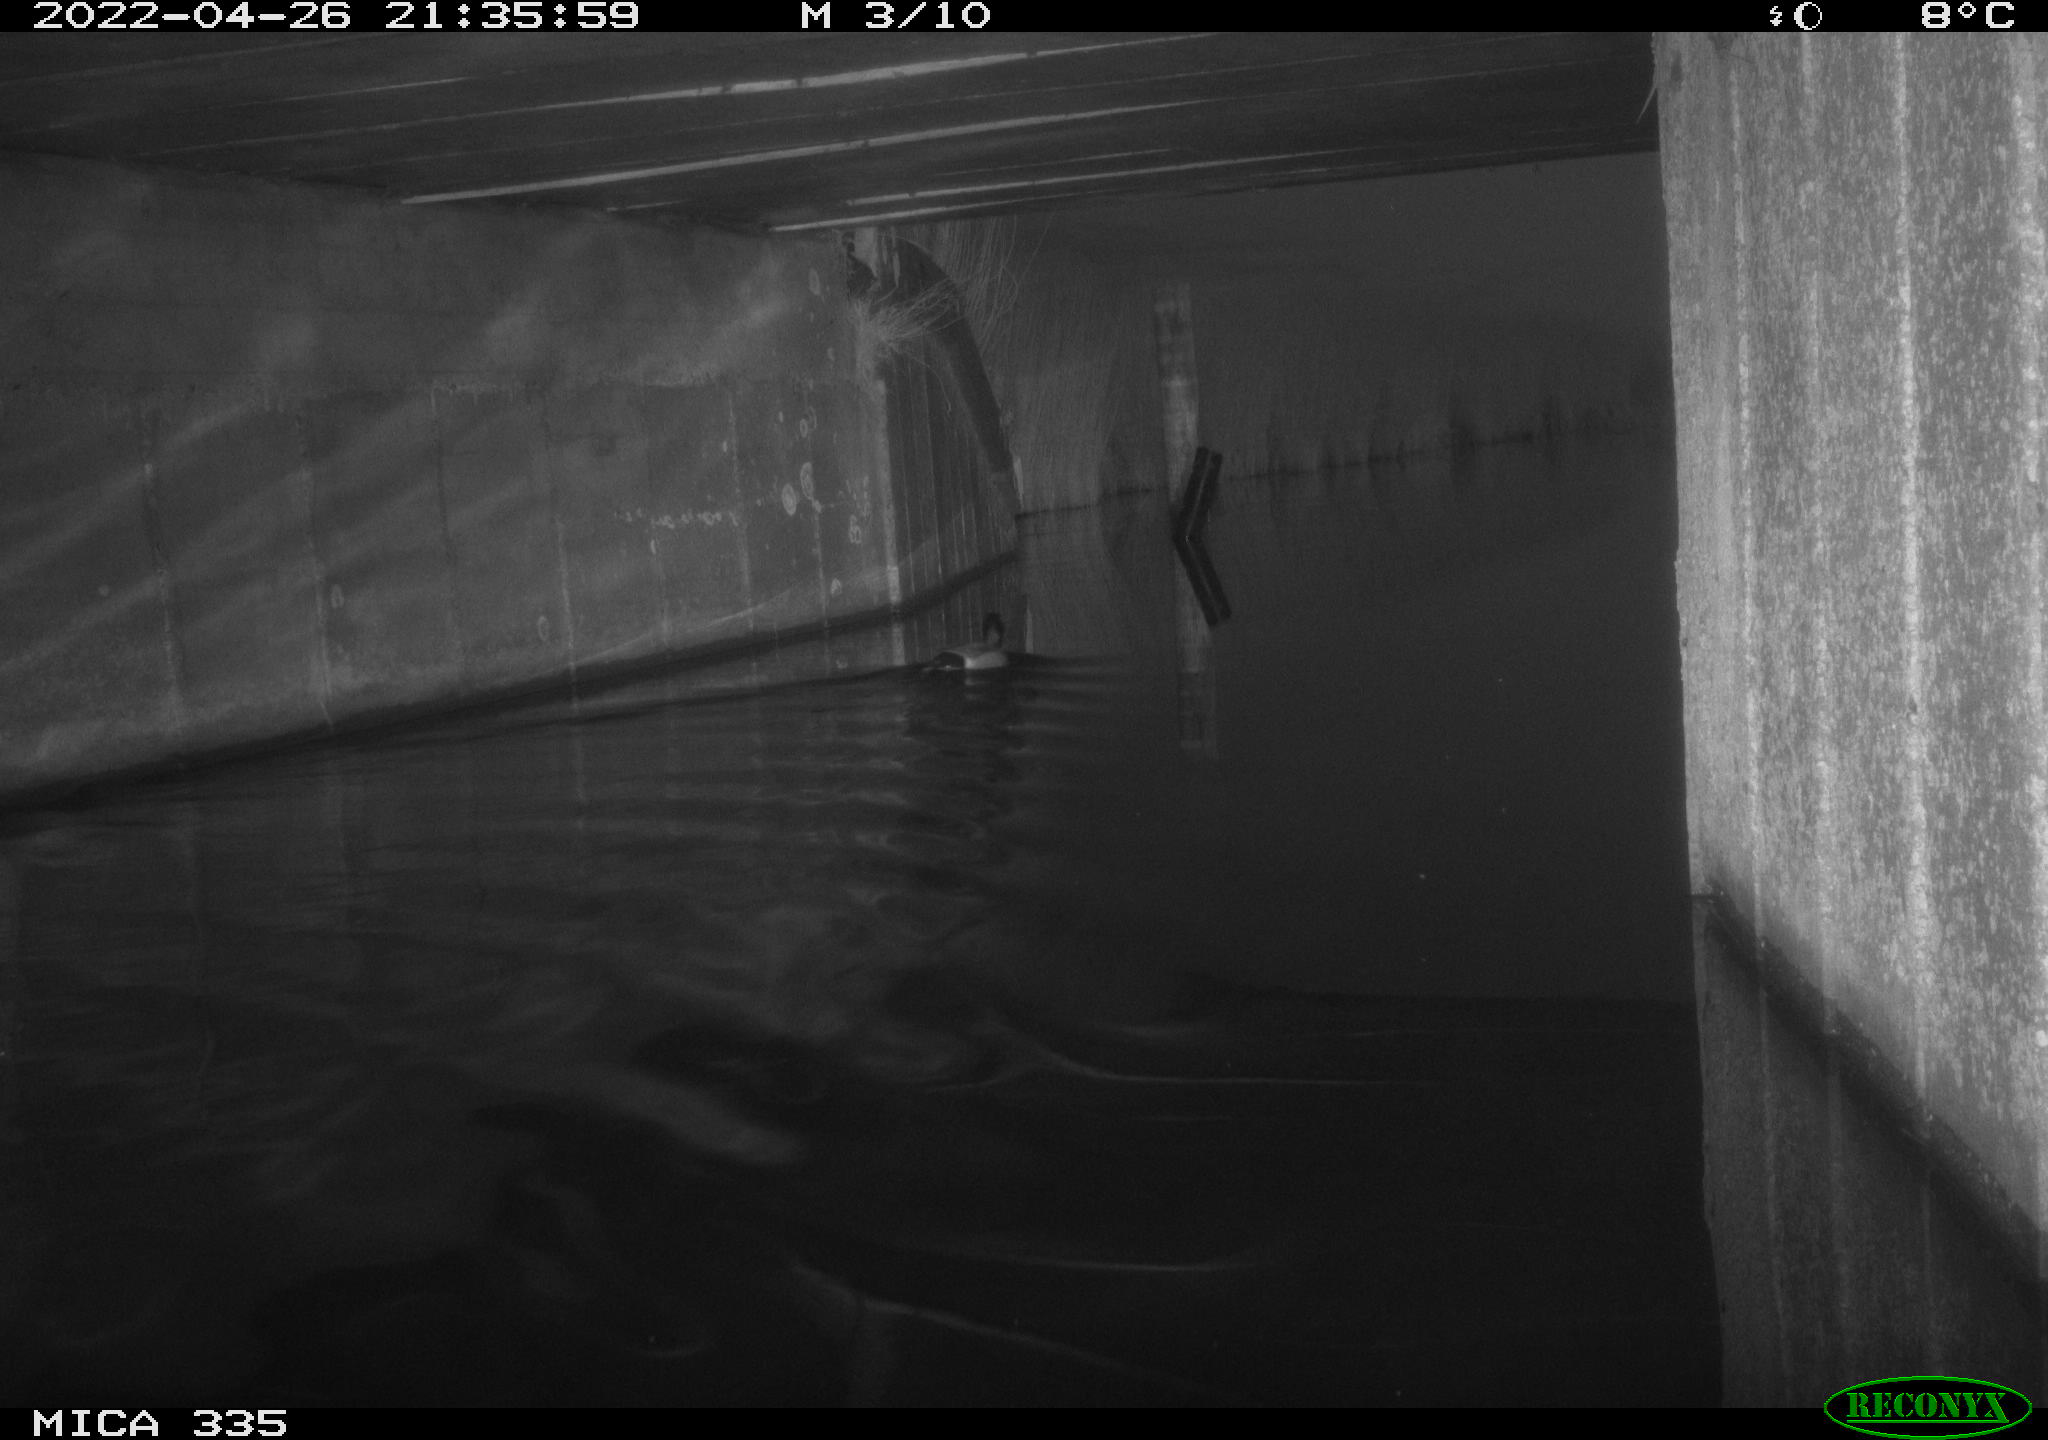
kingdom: Animalia
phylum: Chordata
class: Aves
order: Anseriformes
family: Anatidae
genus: Anas
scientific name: Anas platyrhynchos
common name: Mallard
